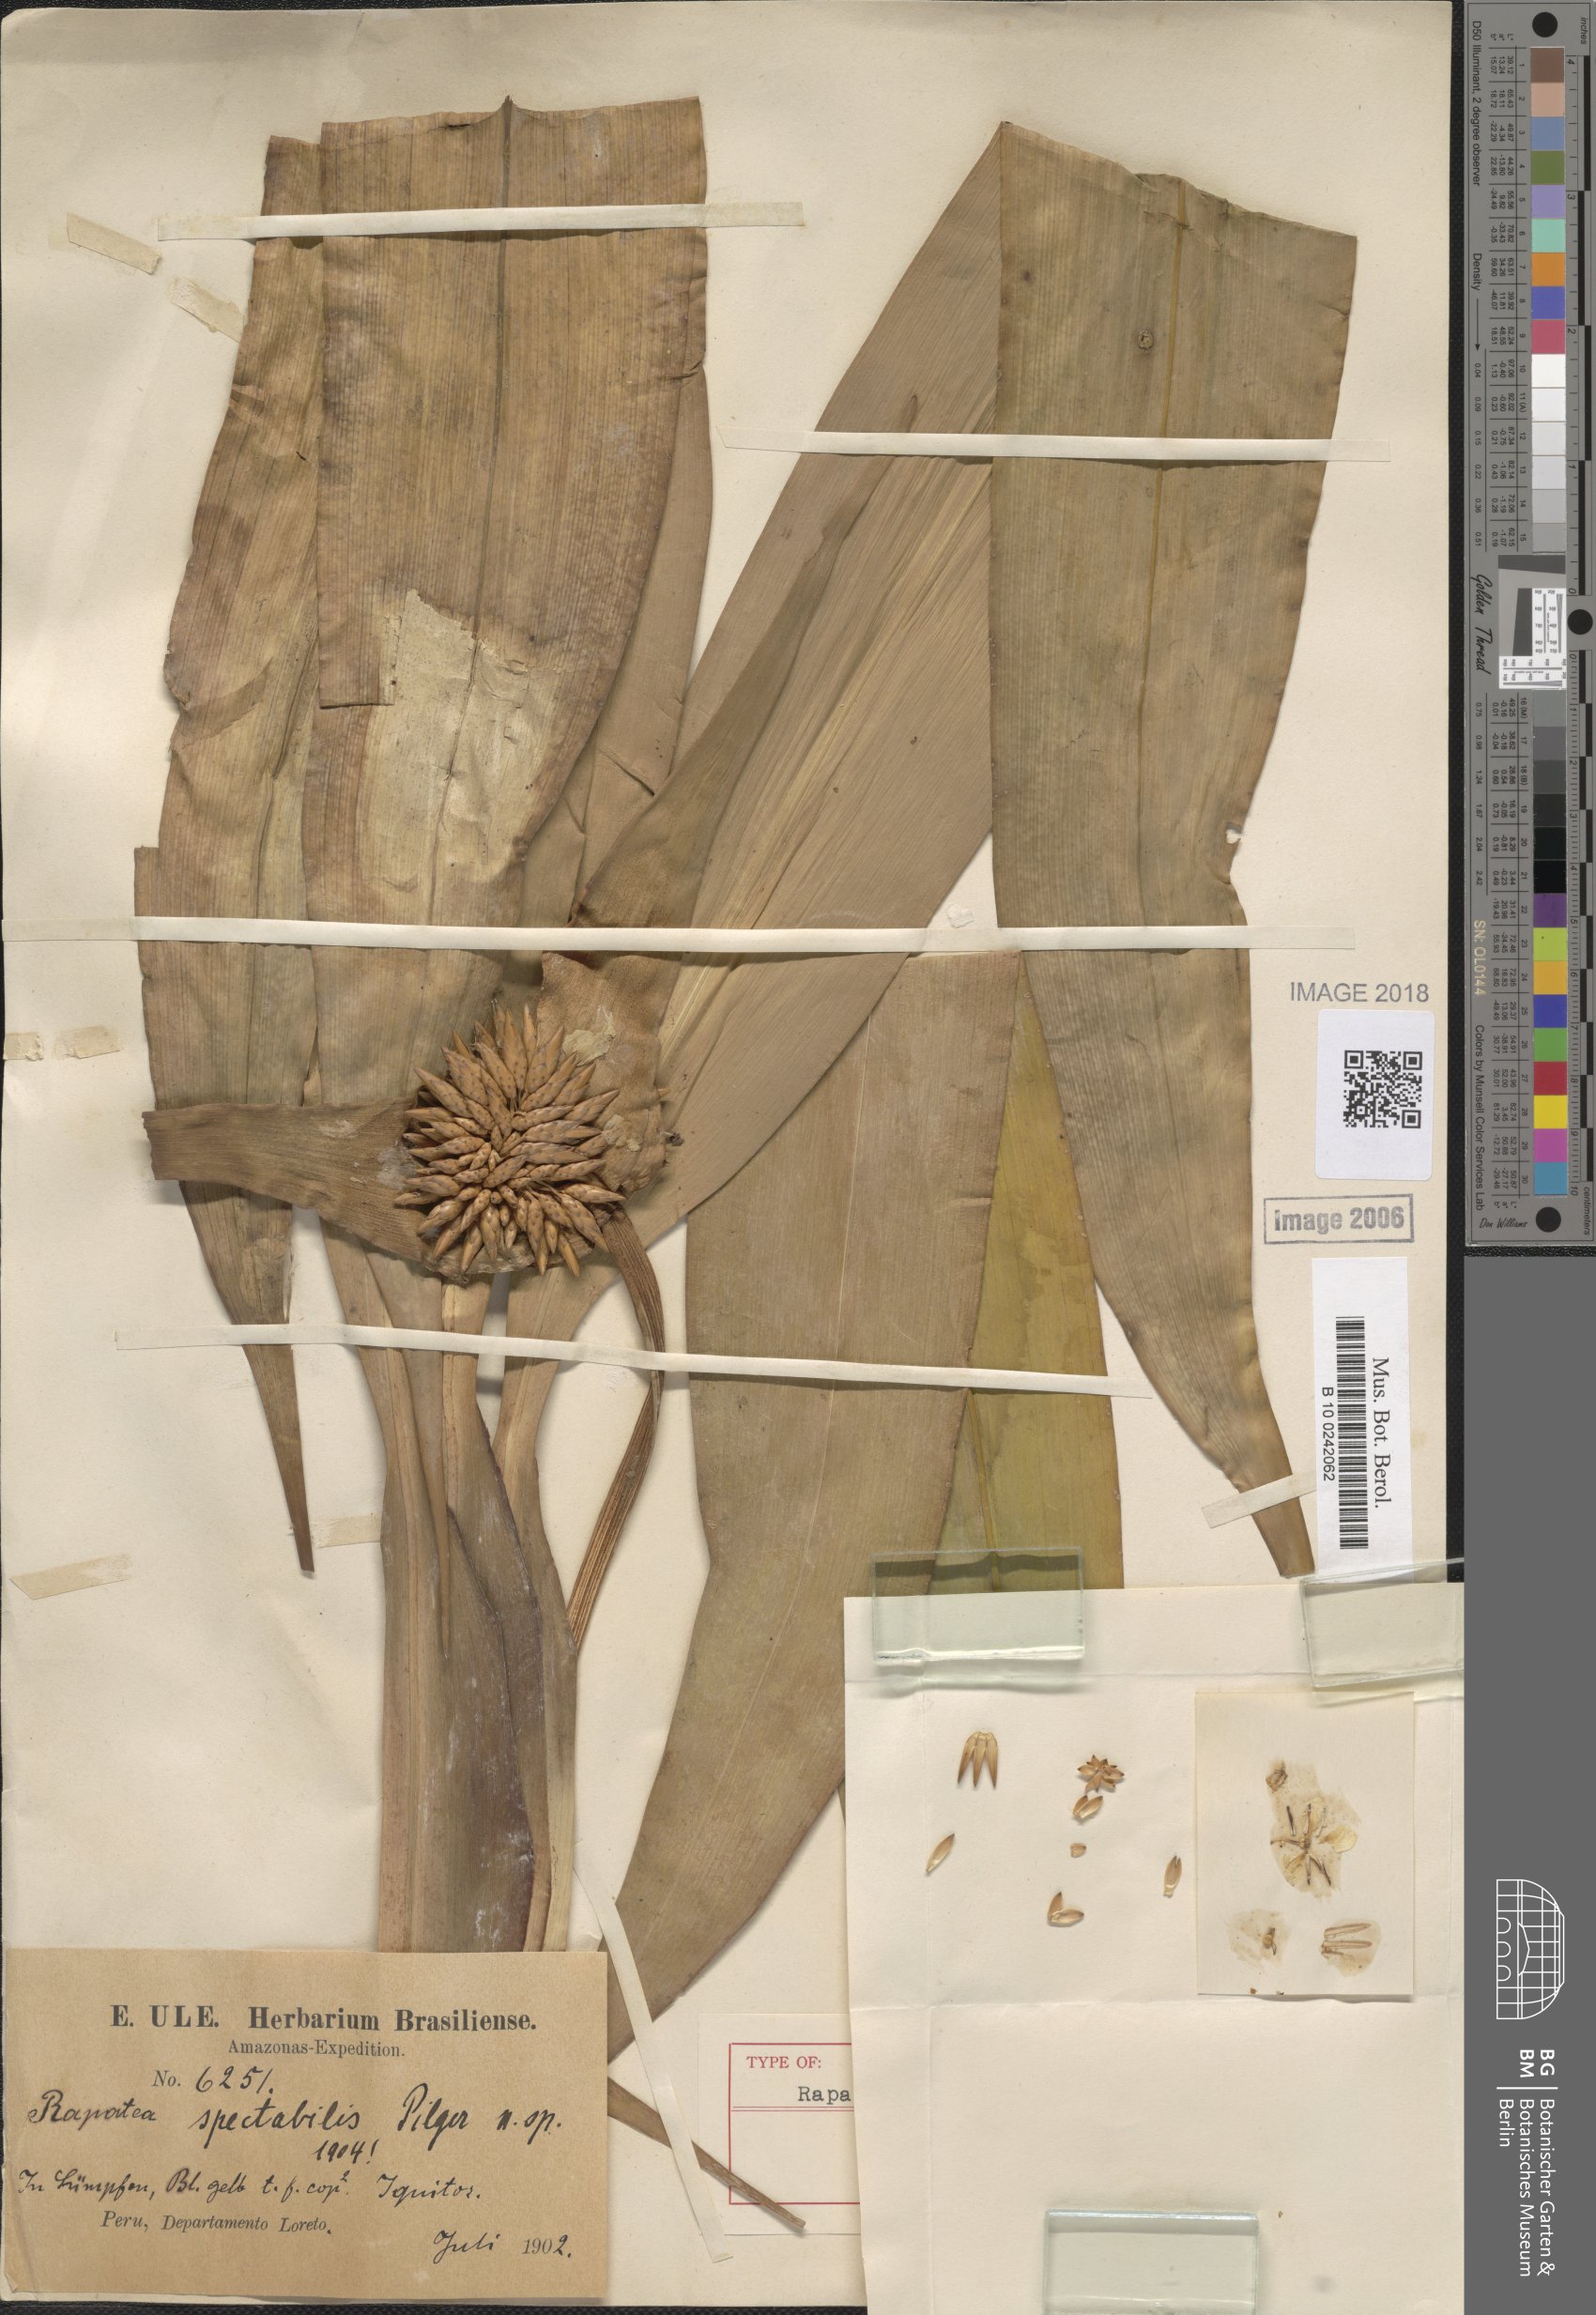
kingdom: Plantae
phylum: Tracheophyta
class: Liliopsida
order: Poales
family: Rapateaceae
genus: Rapatea
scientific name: Rapatea spectabilis
